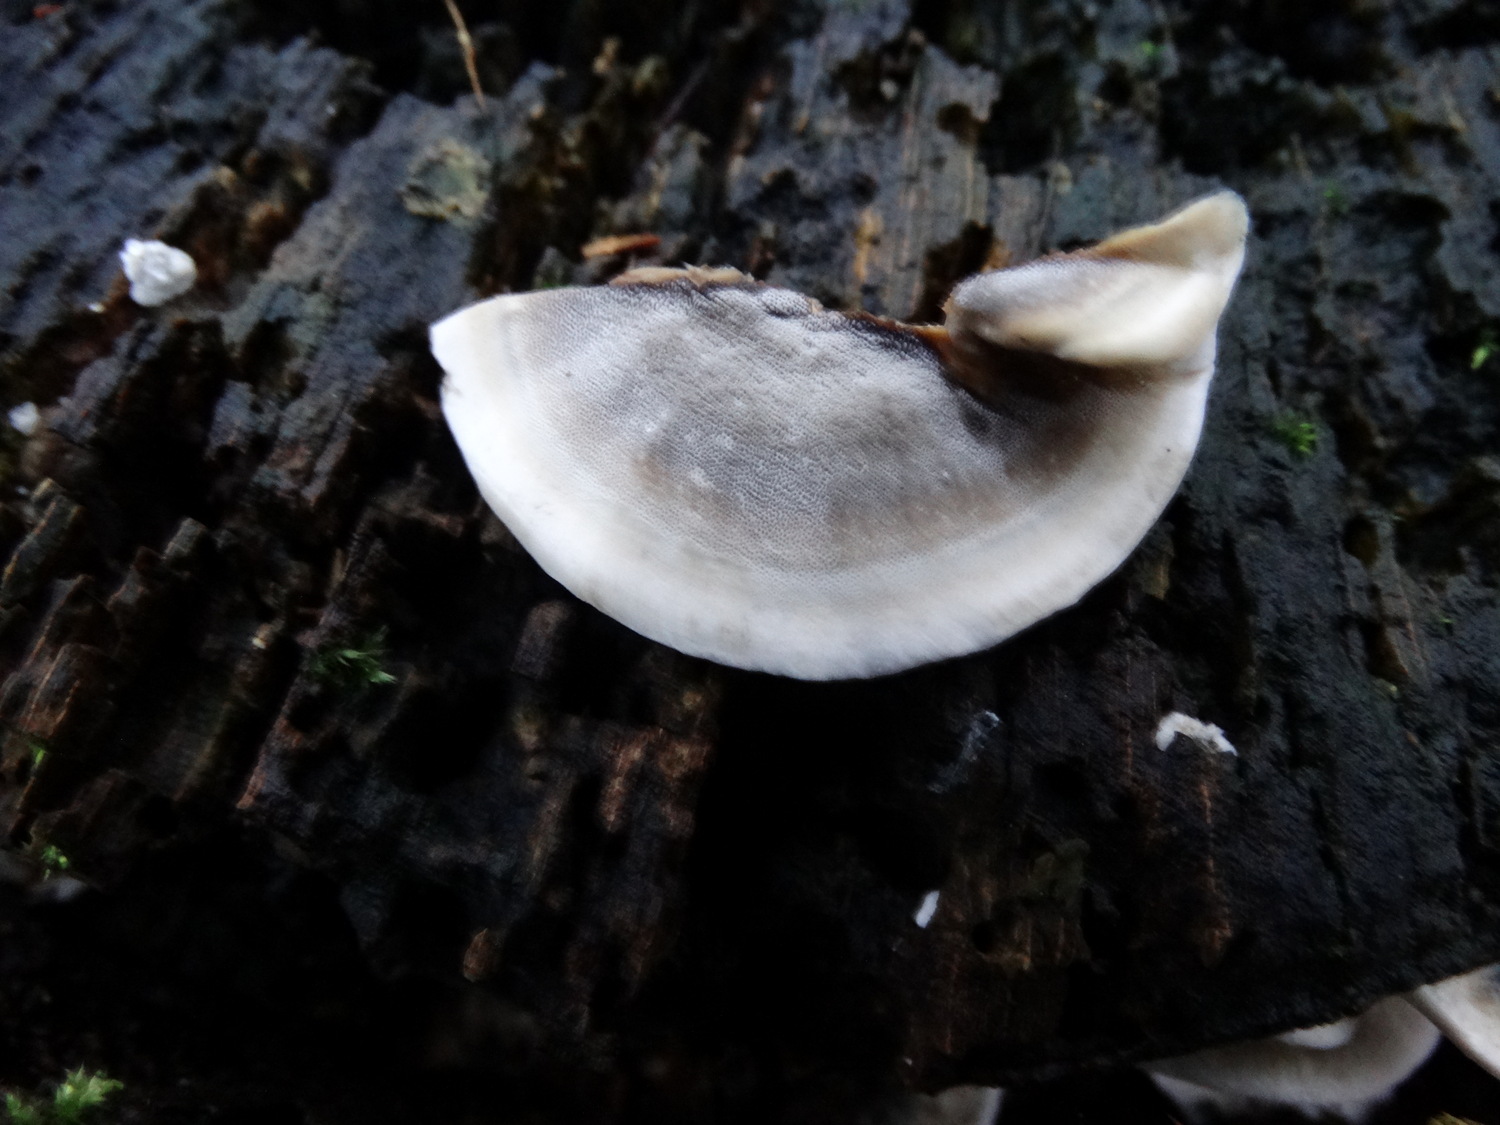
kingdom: Fungi
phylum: Basidiomycota
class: Agaricomycetes
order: Polyporales
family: Phanerochaetaceae
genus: Bjerkandera
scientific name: Bjerkandera adusta
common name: sveden sodporesvamp
